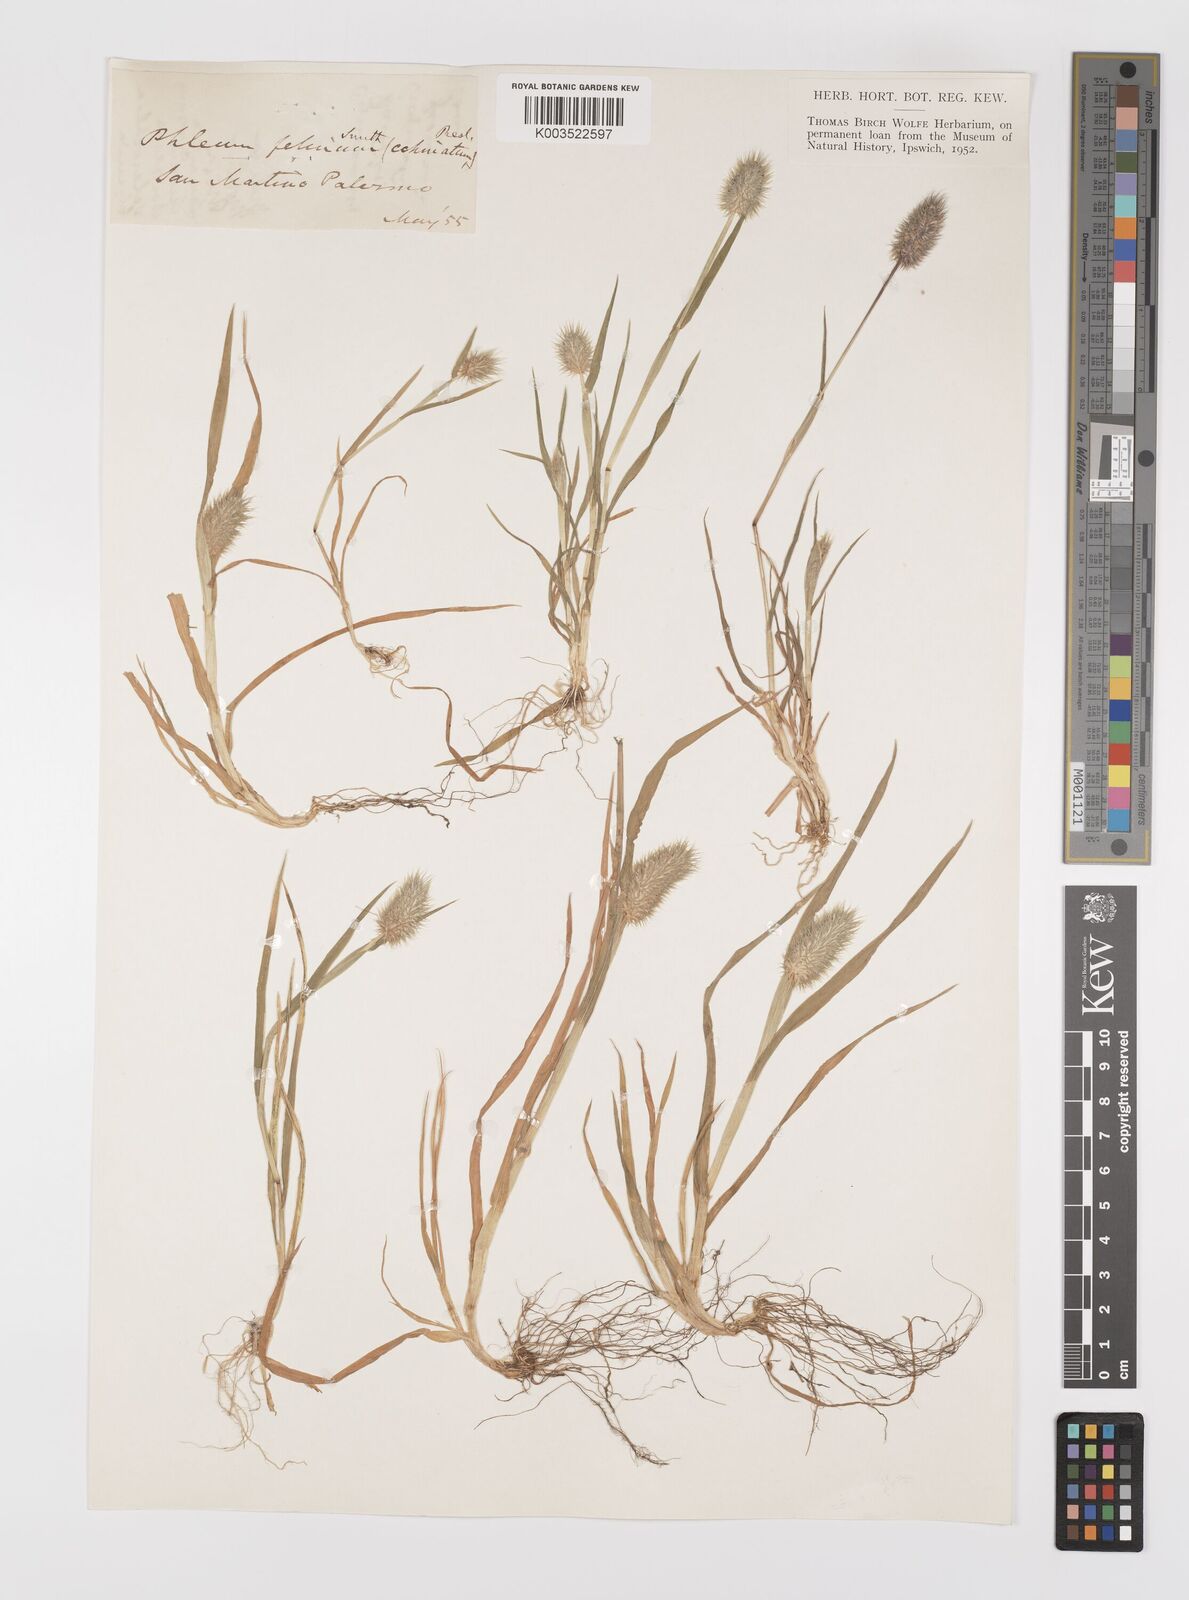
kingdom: Plantae
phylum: Tracheophyta
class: Liliopsida
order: Poales
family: Poaceae
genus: Phleum
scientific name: Phleum echinatum
